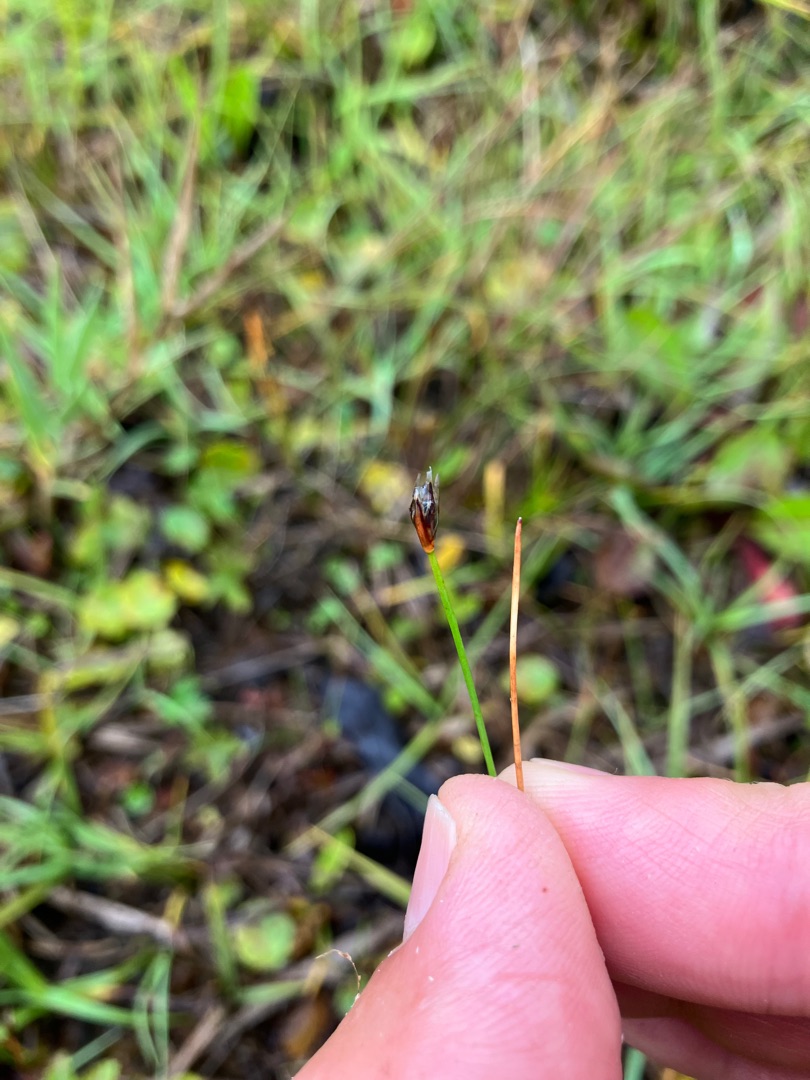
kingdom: Plantae
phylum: Tracheophyta
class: Liliopsida
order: Poales
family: Cyperaceae
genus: Eleocharis
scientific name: Eleocharis quinqueflora
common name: Fåblomstret kogleaks
